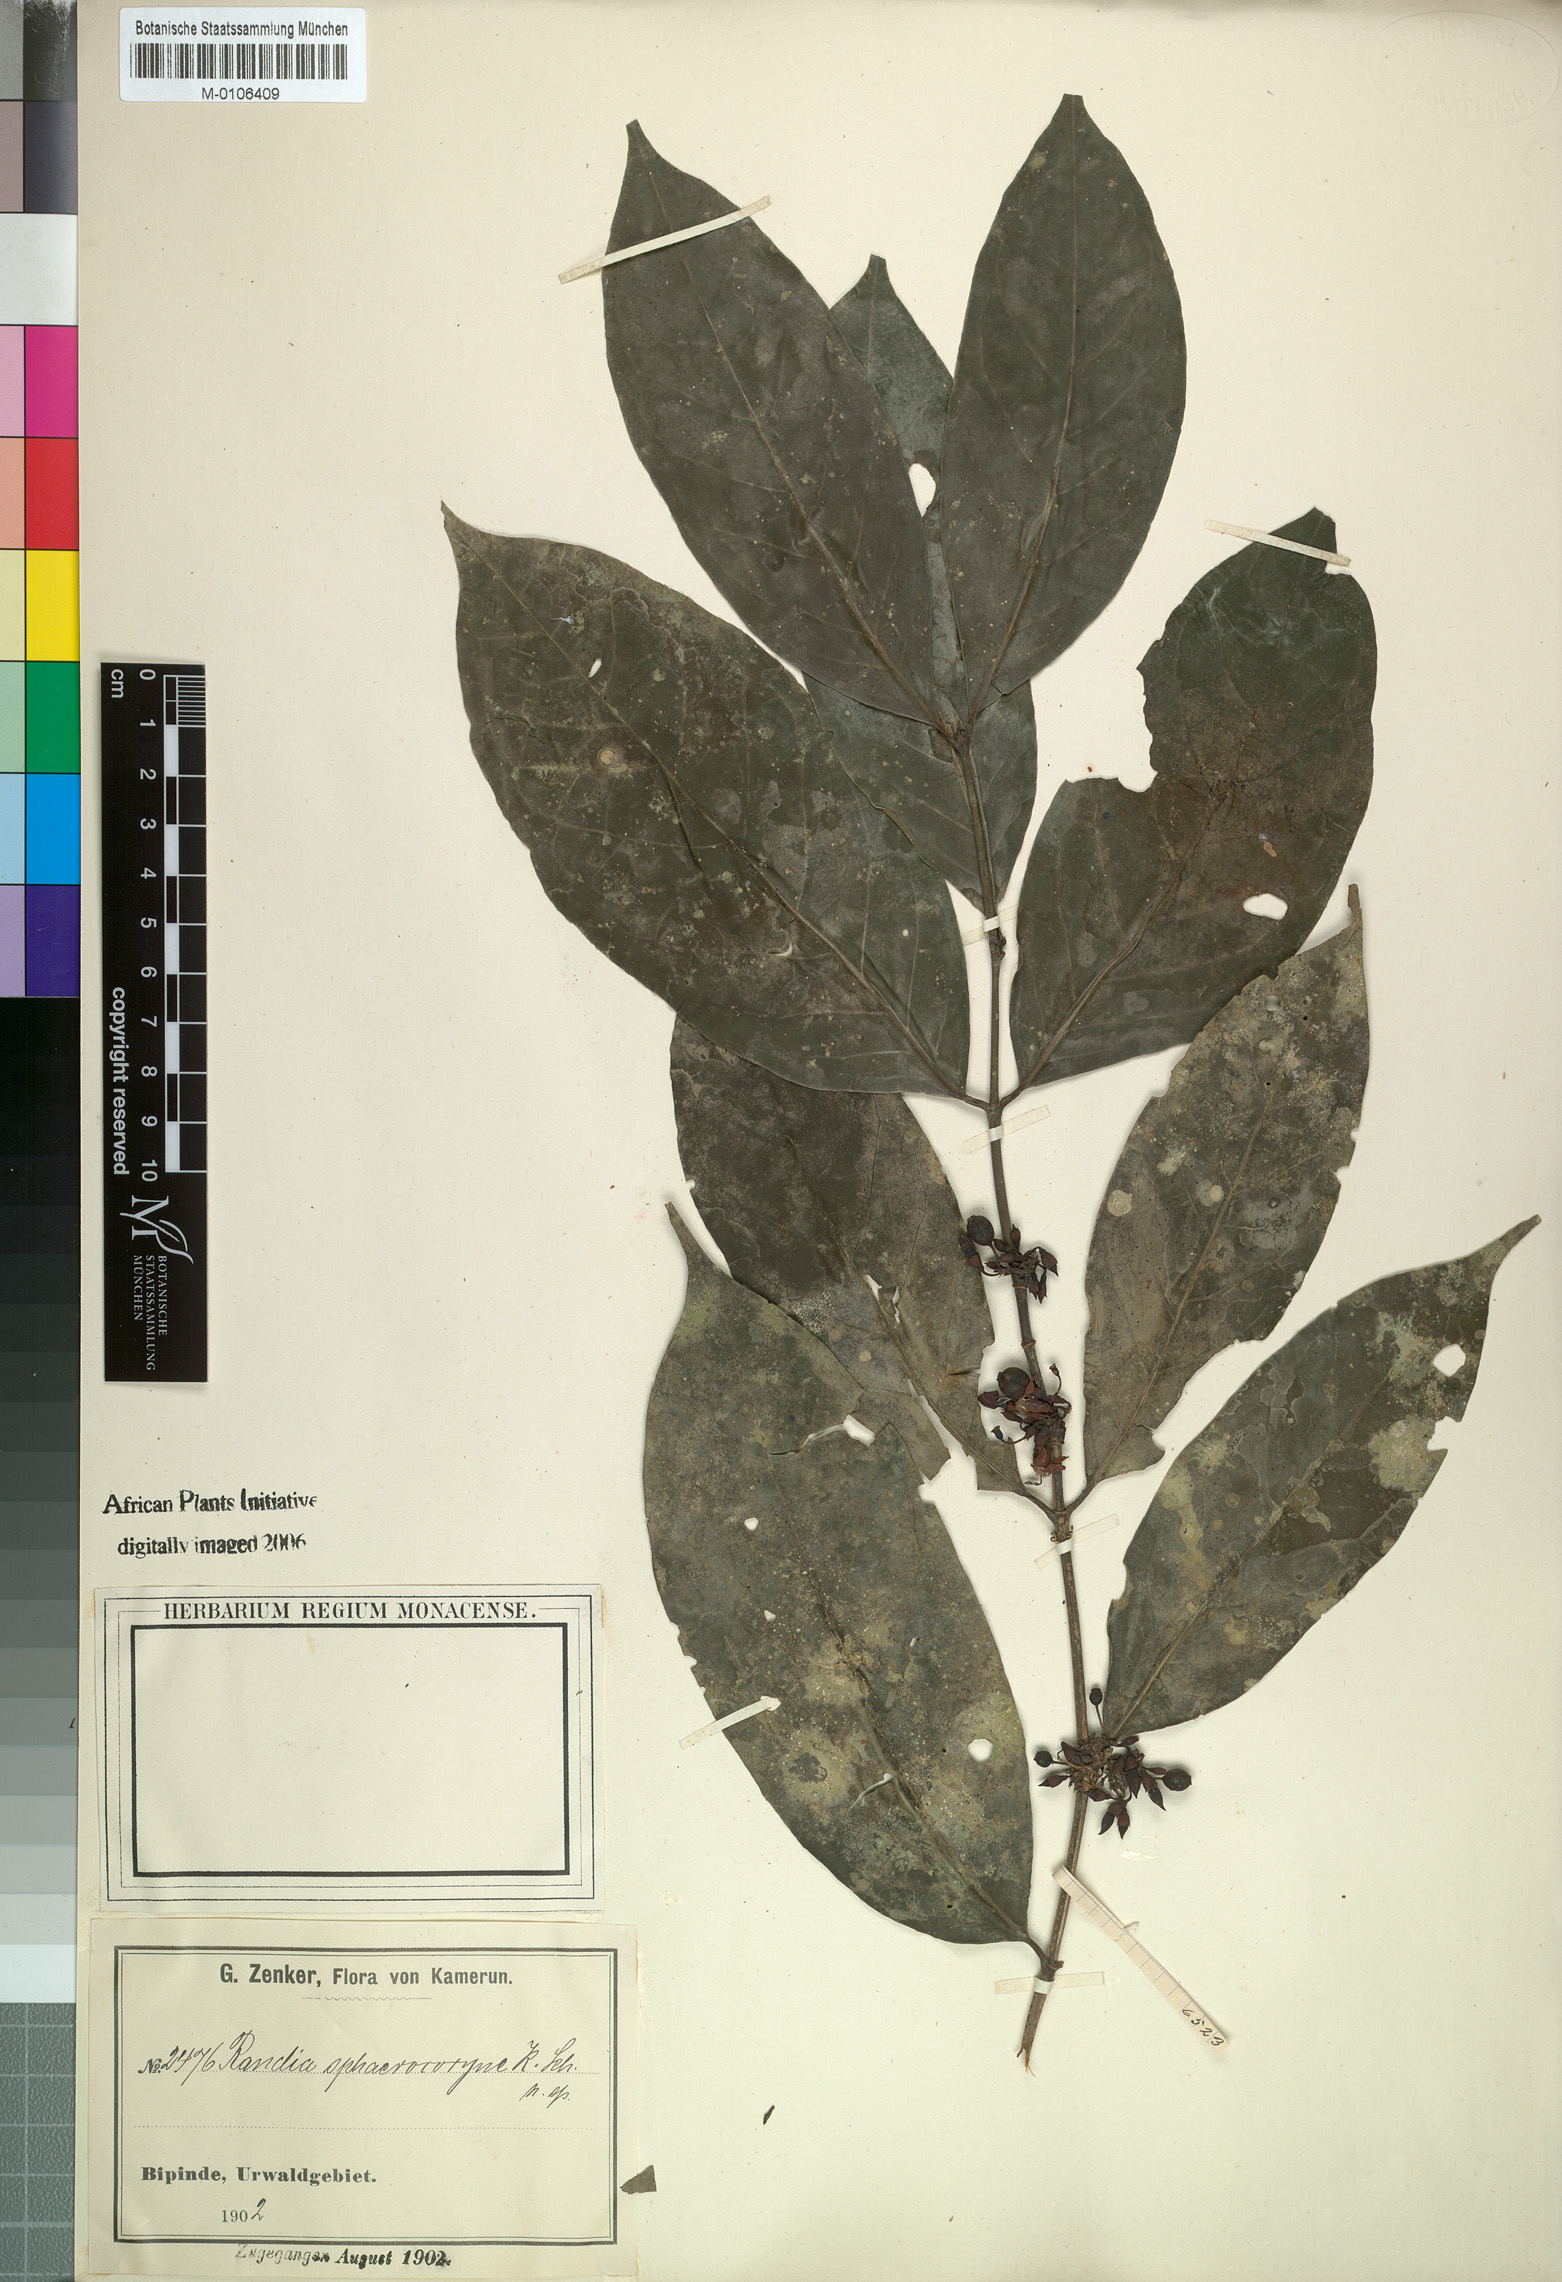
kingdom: Plantae
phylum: Tracheophyta
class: Magnoliopsida
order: Gentianales
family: Rubiaceae
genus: Aidia
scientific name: Aidia micrantha
